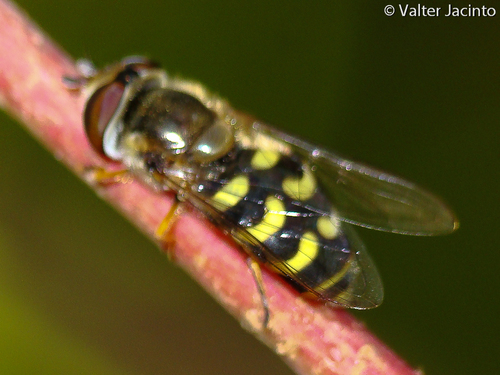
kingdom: Animalia
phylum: Arthropoda
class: Insecta
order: Diptera
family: Syrphidae
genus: Scaeva
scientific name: Scaeva selenitica
